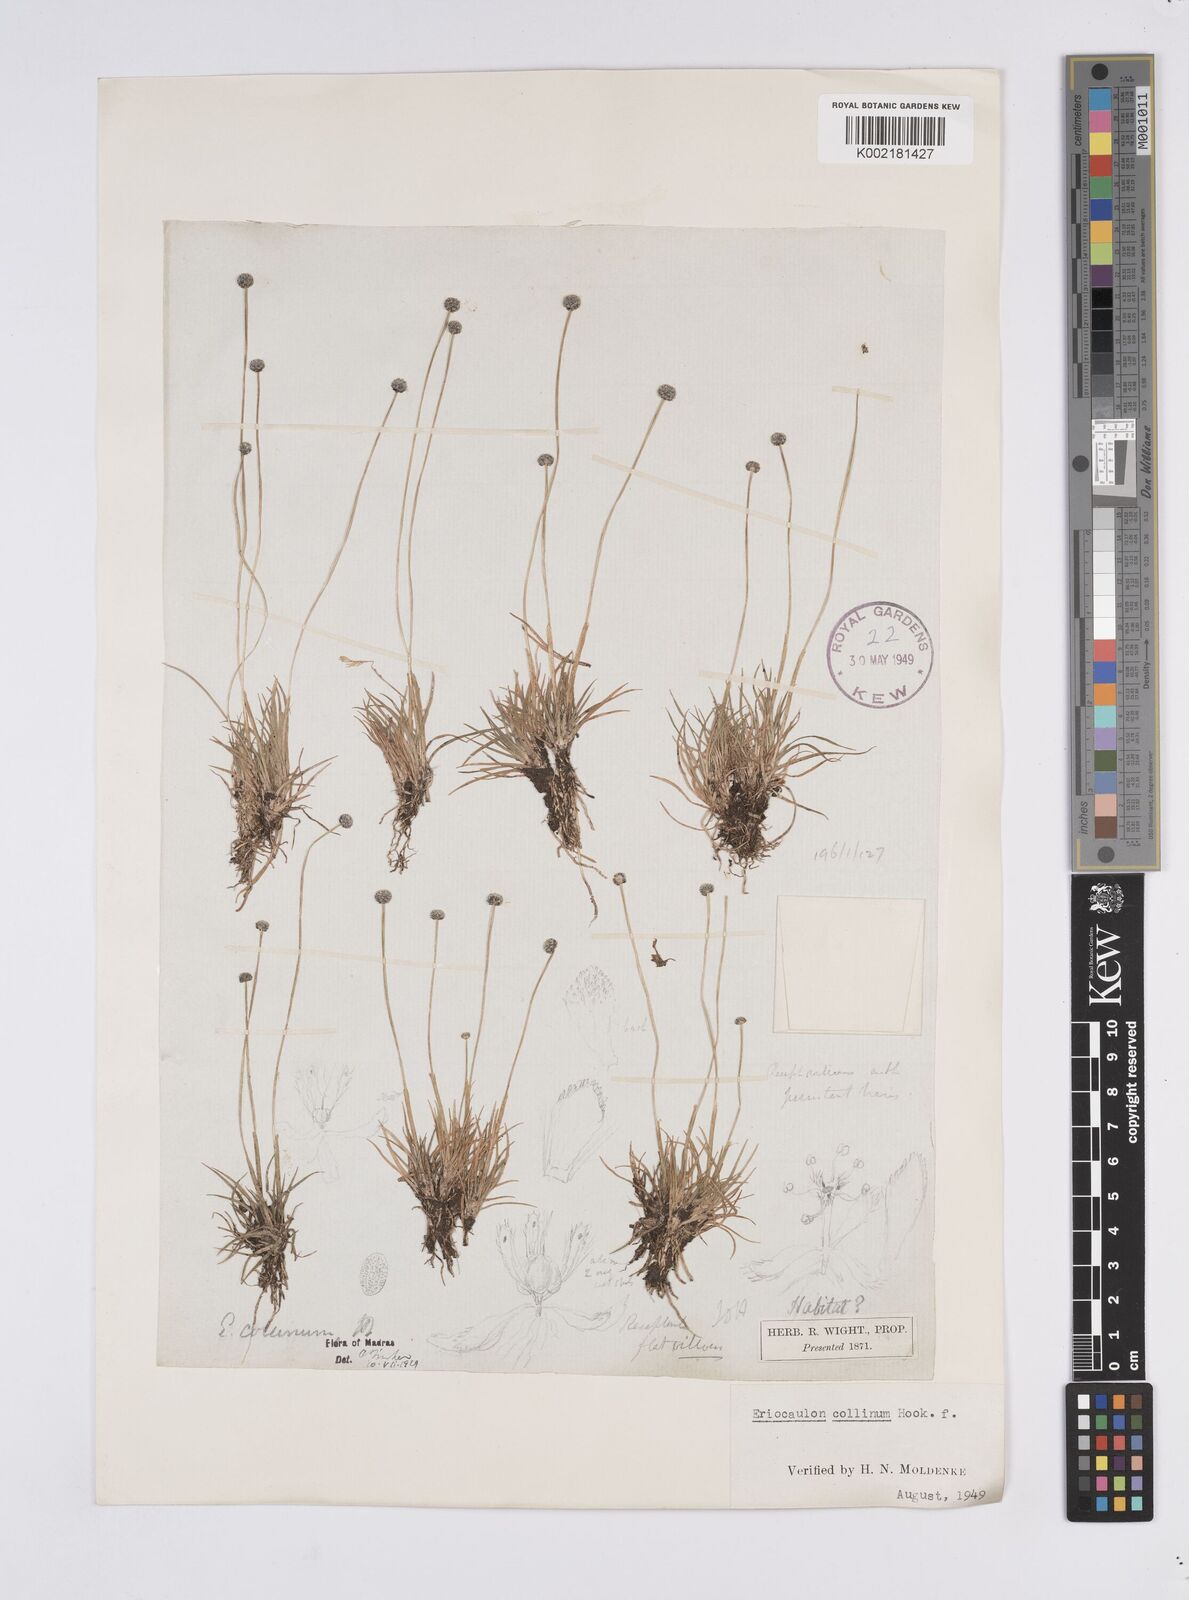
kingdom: Plantae
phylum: Tracheophyta
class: Liliopsida
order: Poales
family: Eriocaulaceae
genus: Eriocaulon
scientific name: Eriocaulon odoratum
